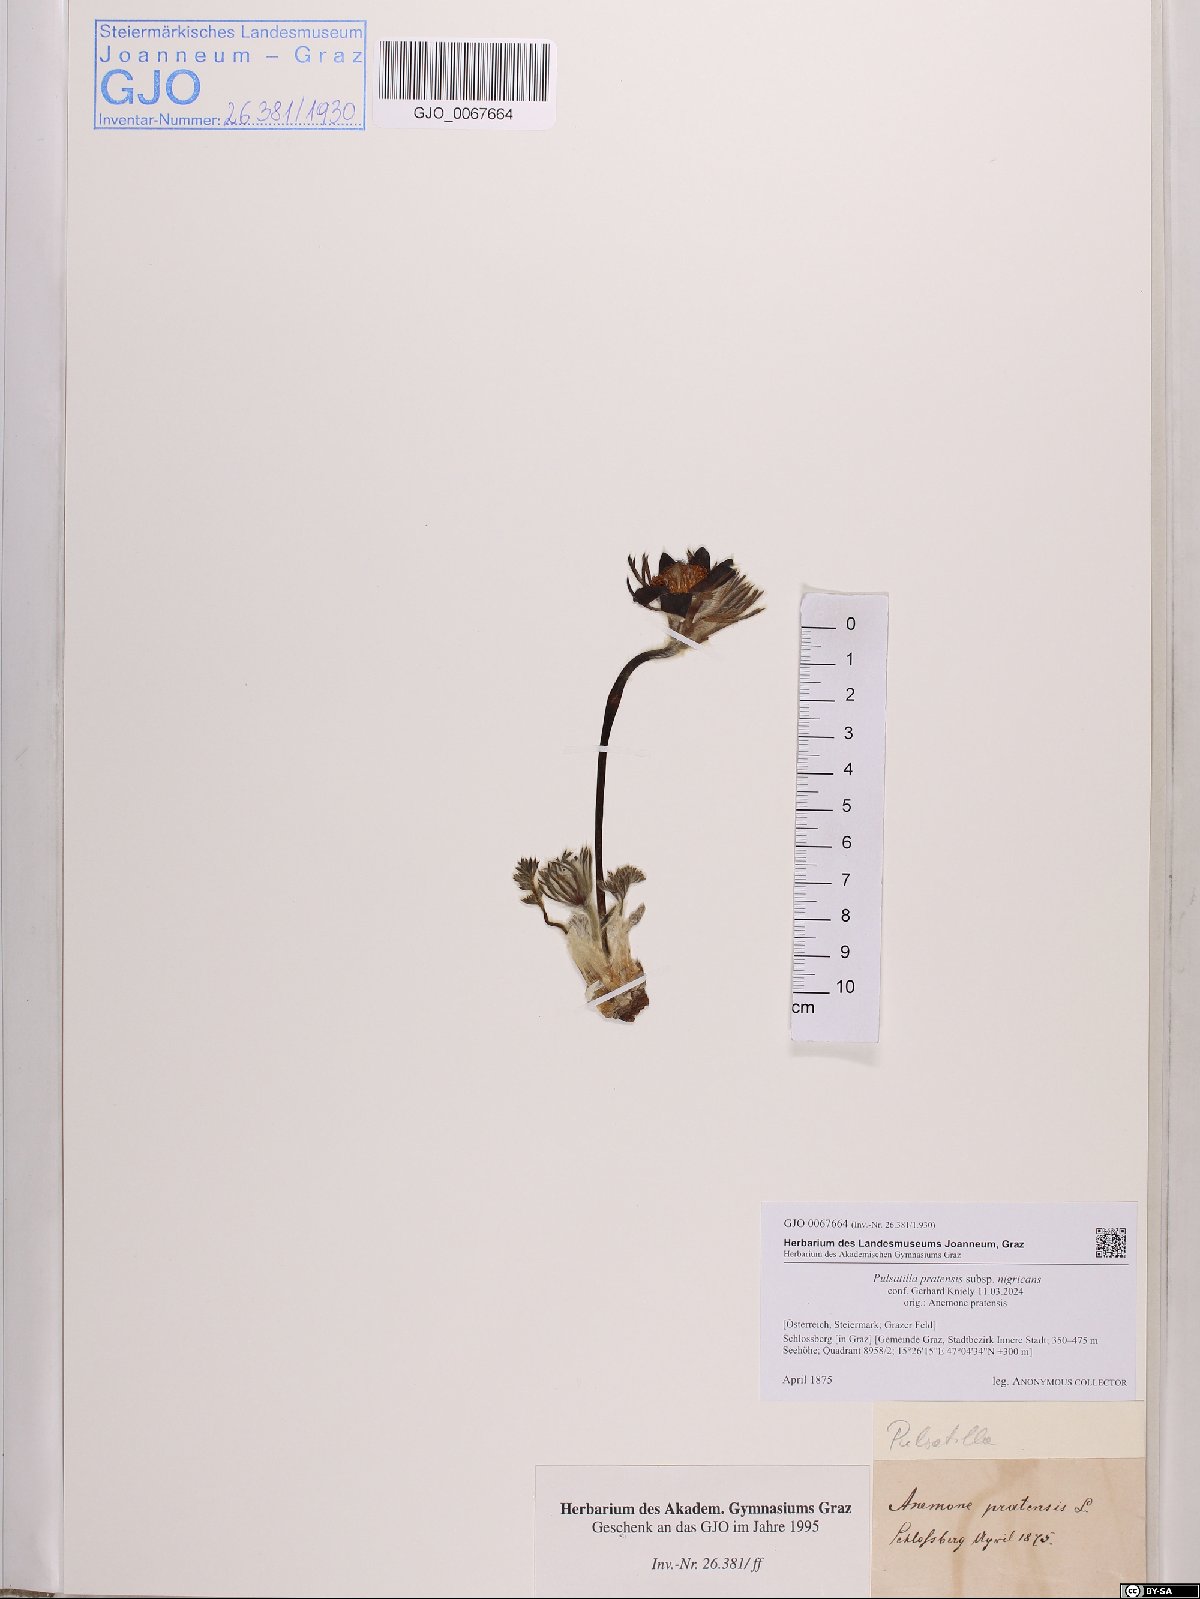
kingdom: Plantae
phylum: Tracheophyta
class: Magnoliopsida
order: Ranunculales
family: Ranunculaceae
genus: Pulsatilla
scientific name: Pulsatilla pratensis
